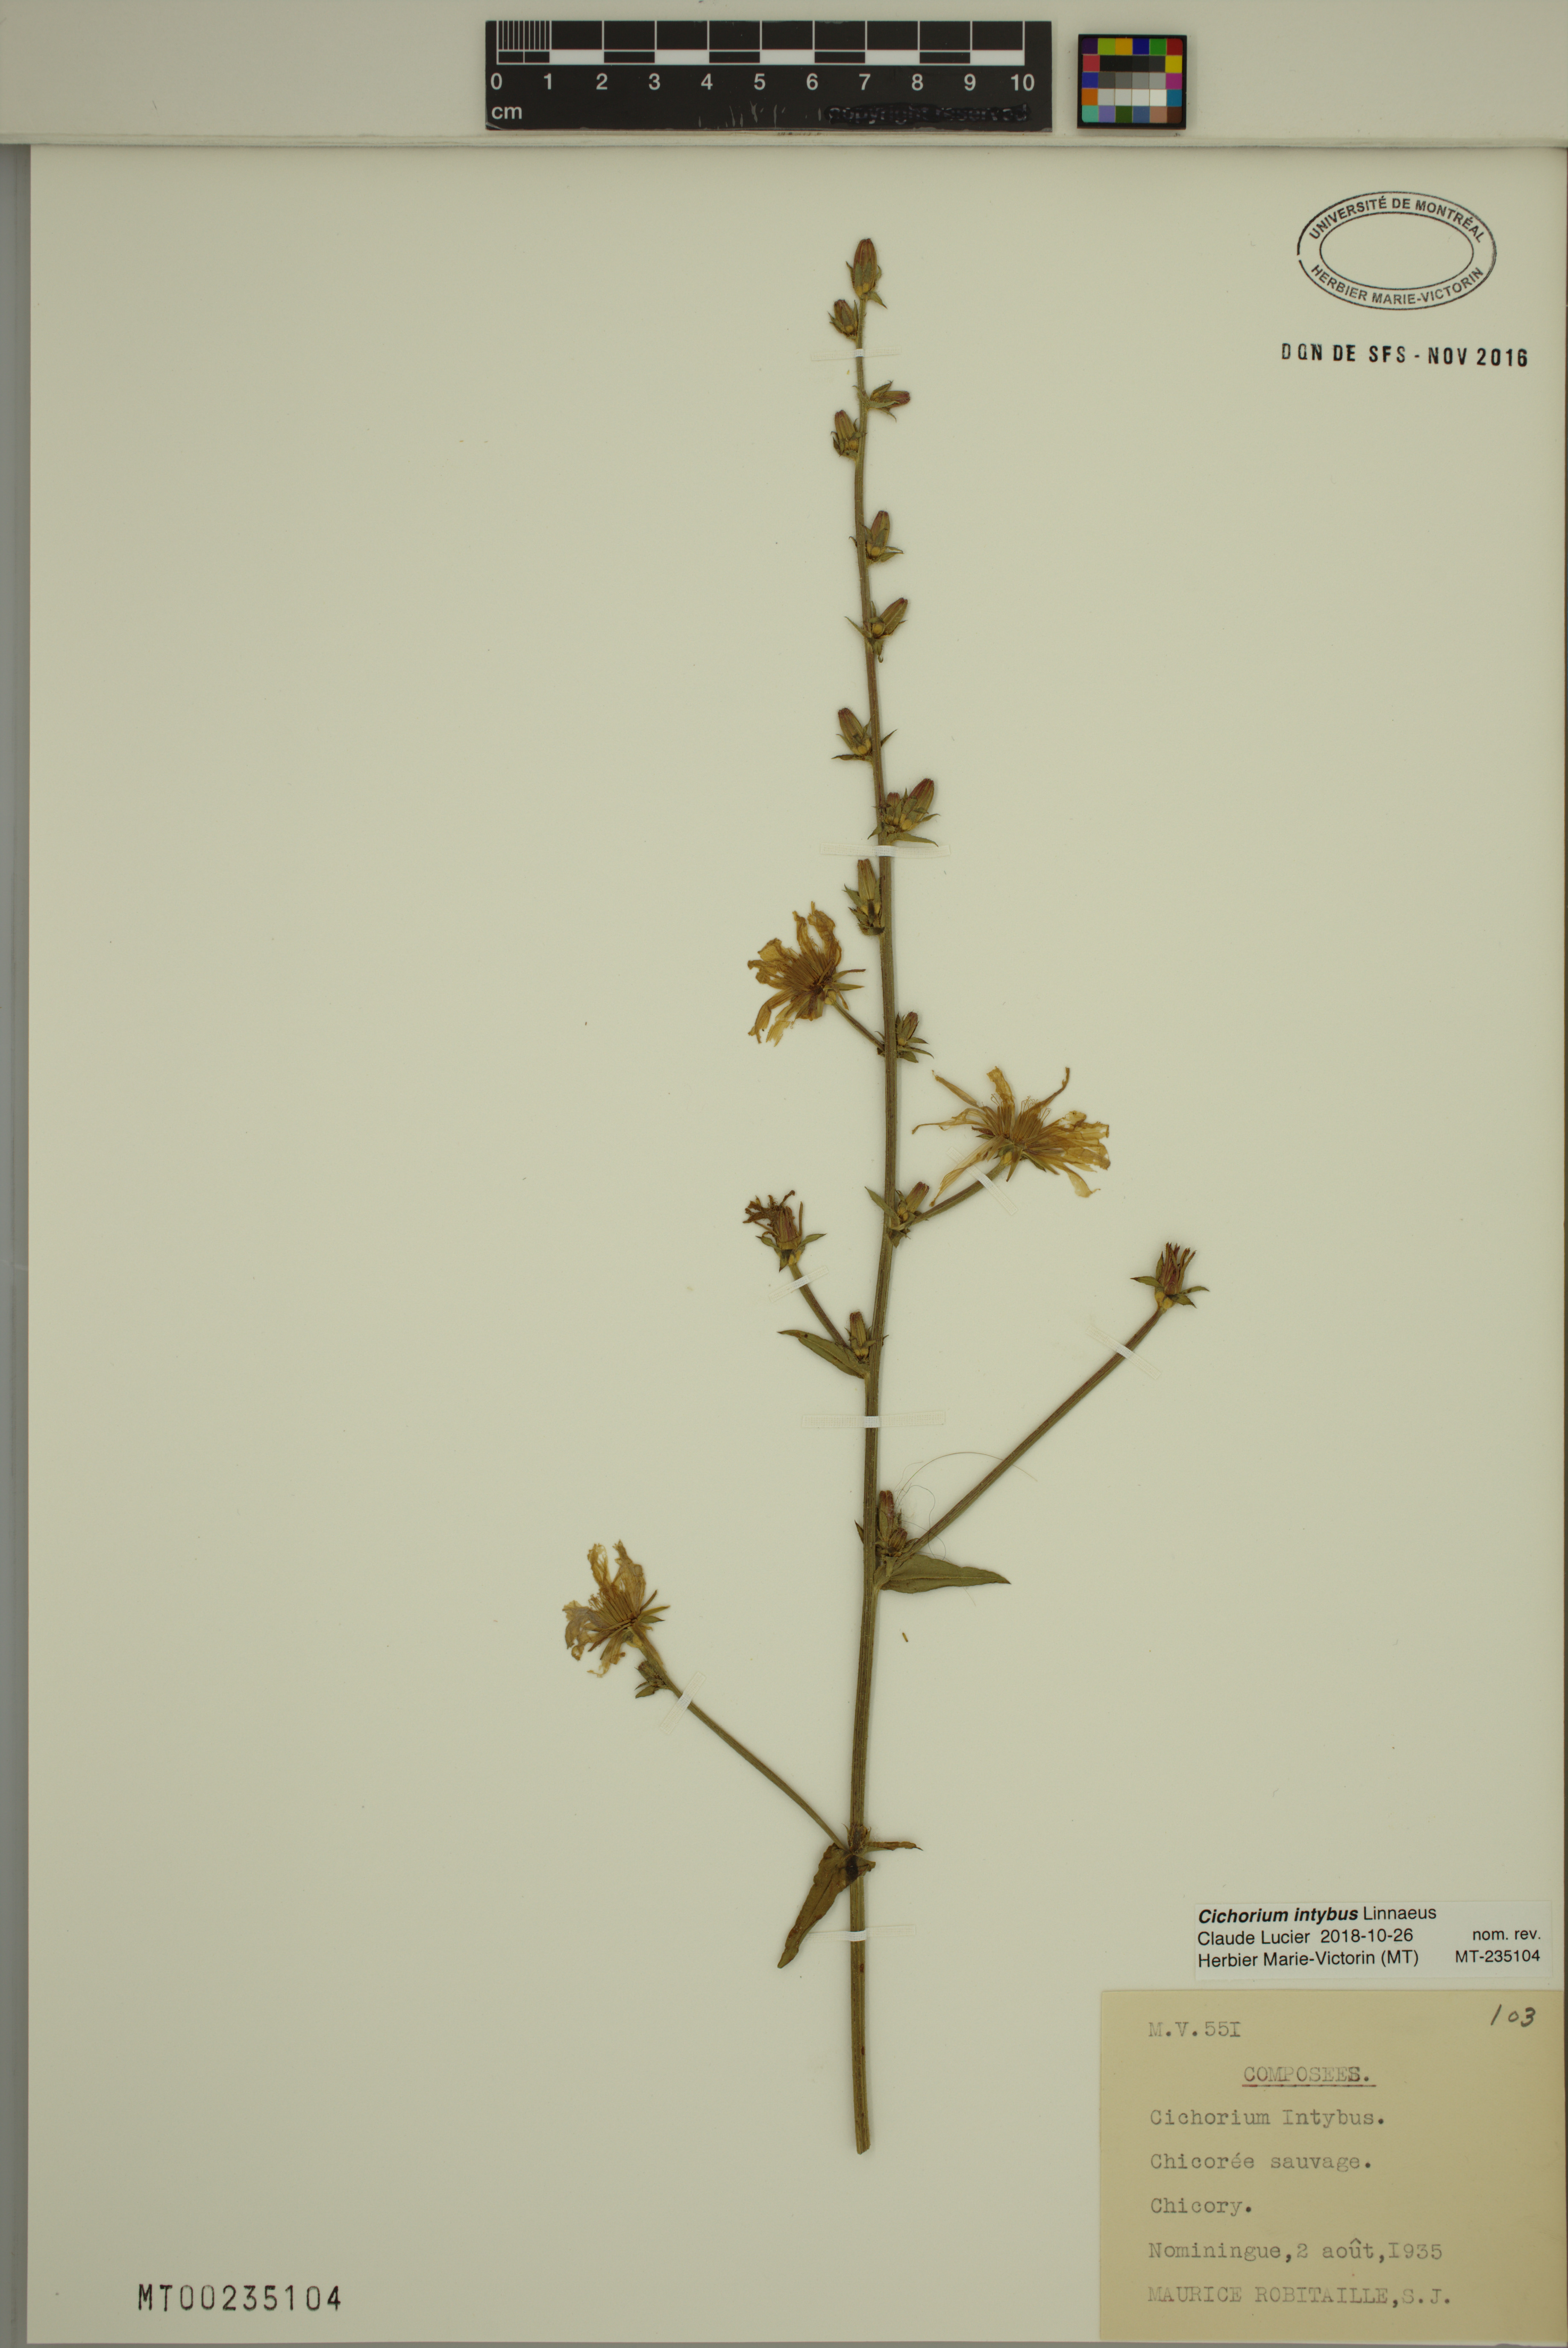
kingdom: Plantae
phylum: Tracheophyta
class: Magnoliopsida
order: Asterales
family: Asteraceae
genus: Cichorium
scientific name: Cichorium intybus
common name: Chicory
